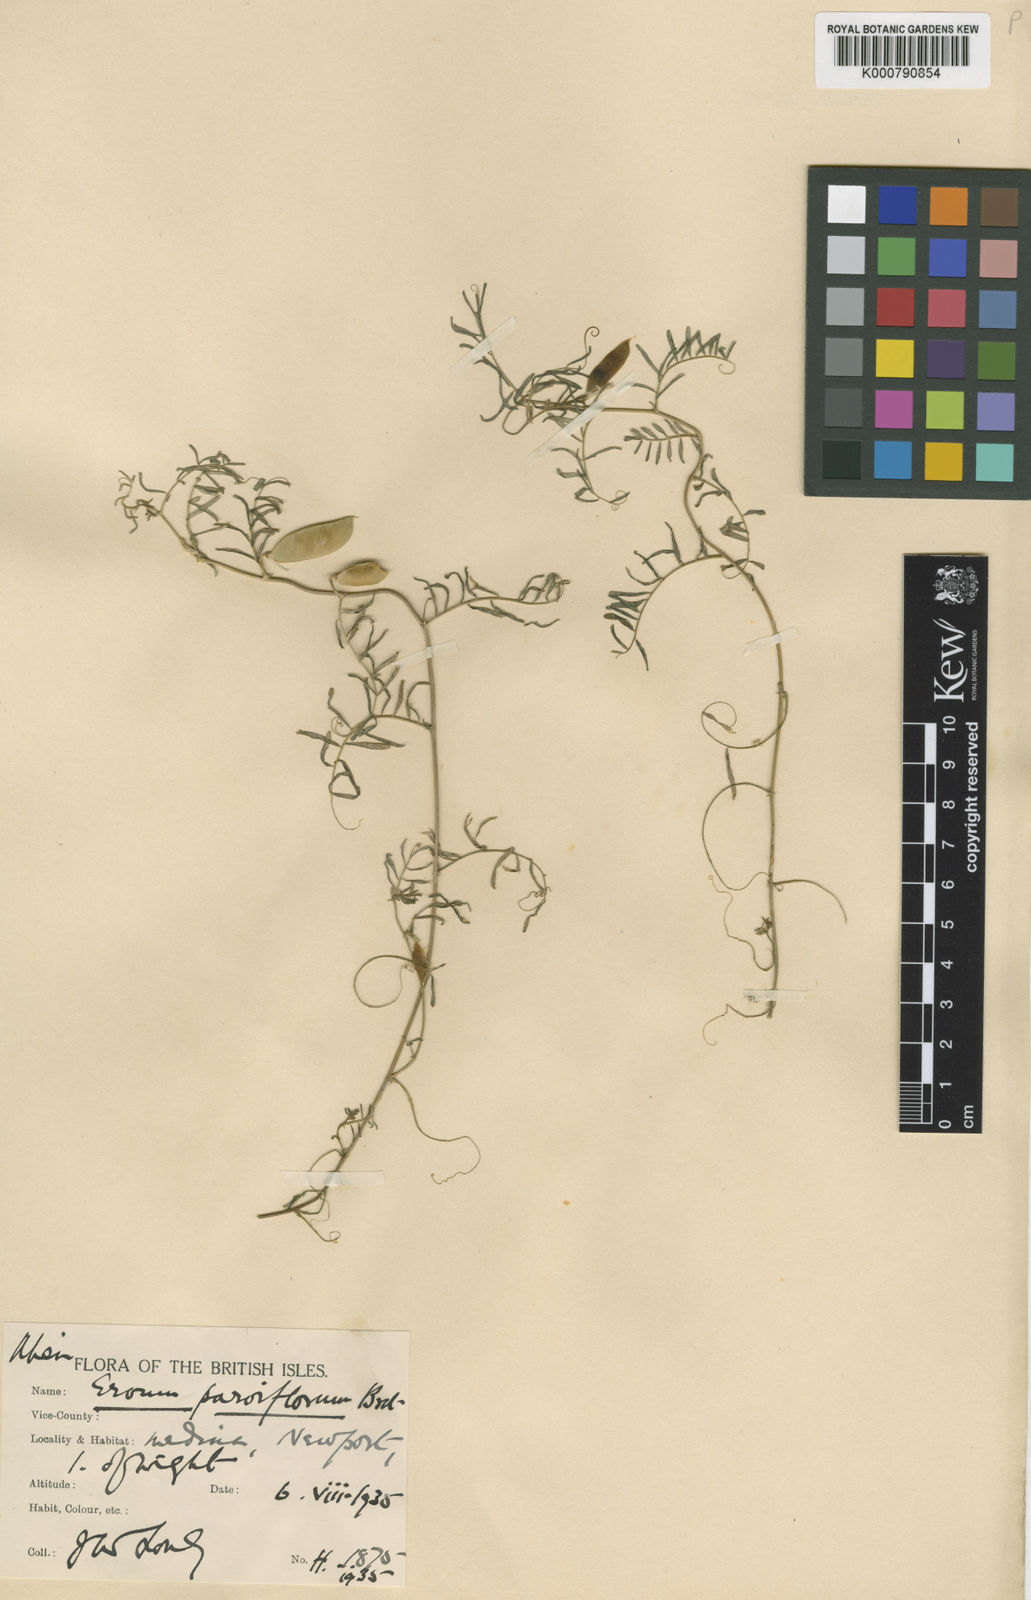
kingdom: Plantae
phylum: Tracheophyta
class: Magnoliopsida
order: Fabales
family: Fabaceae
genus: Vicia
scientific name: Vicia parviflora
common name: Slender tare
